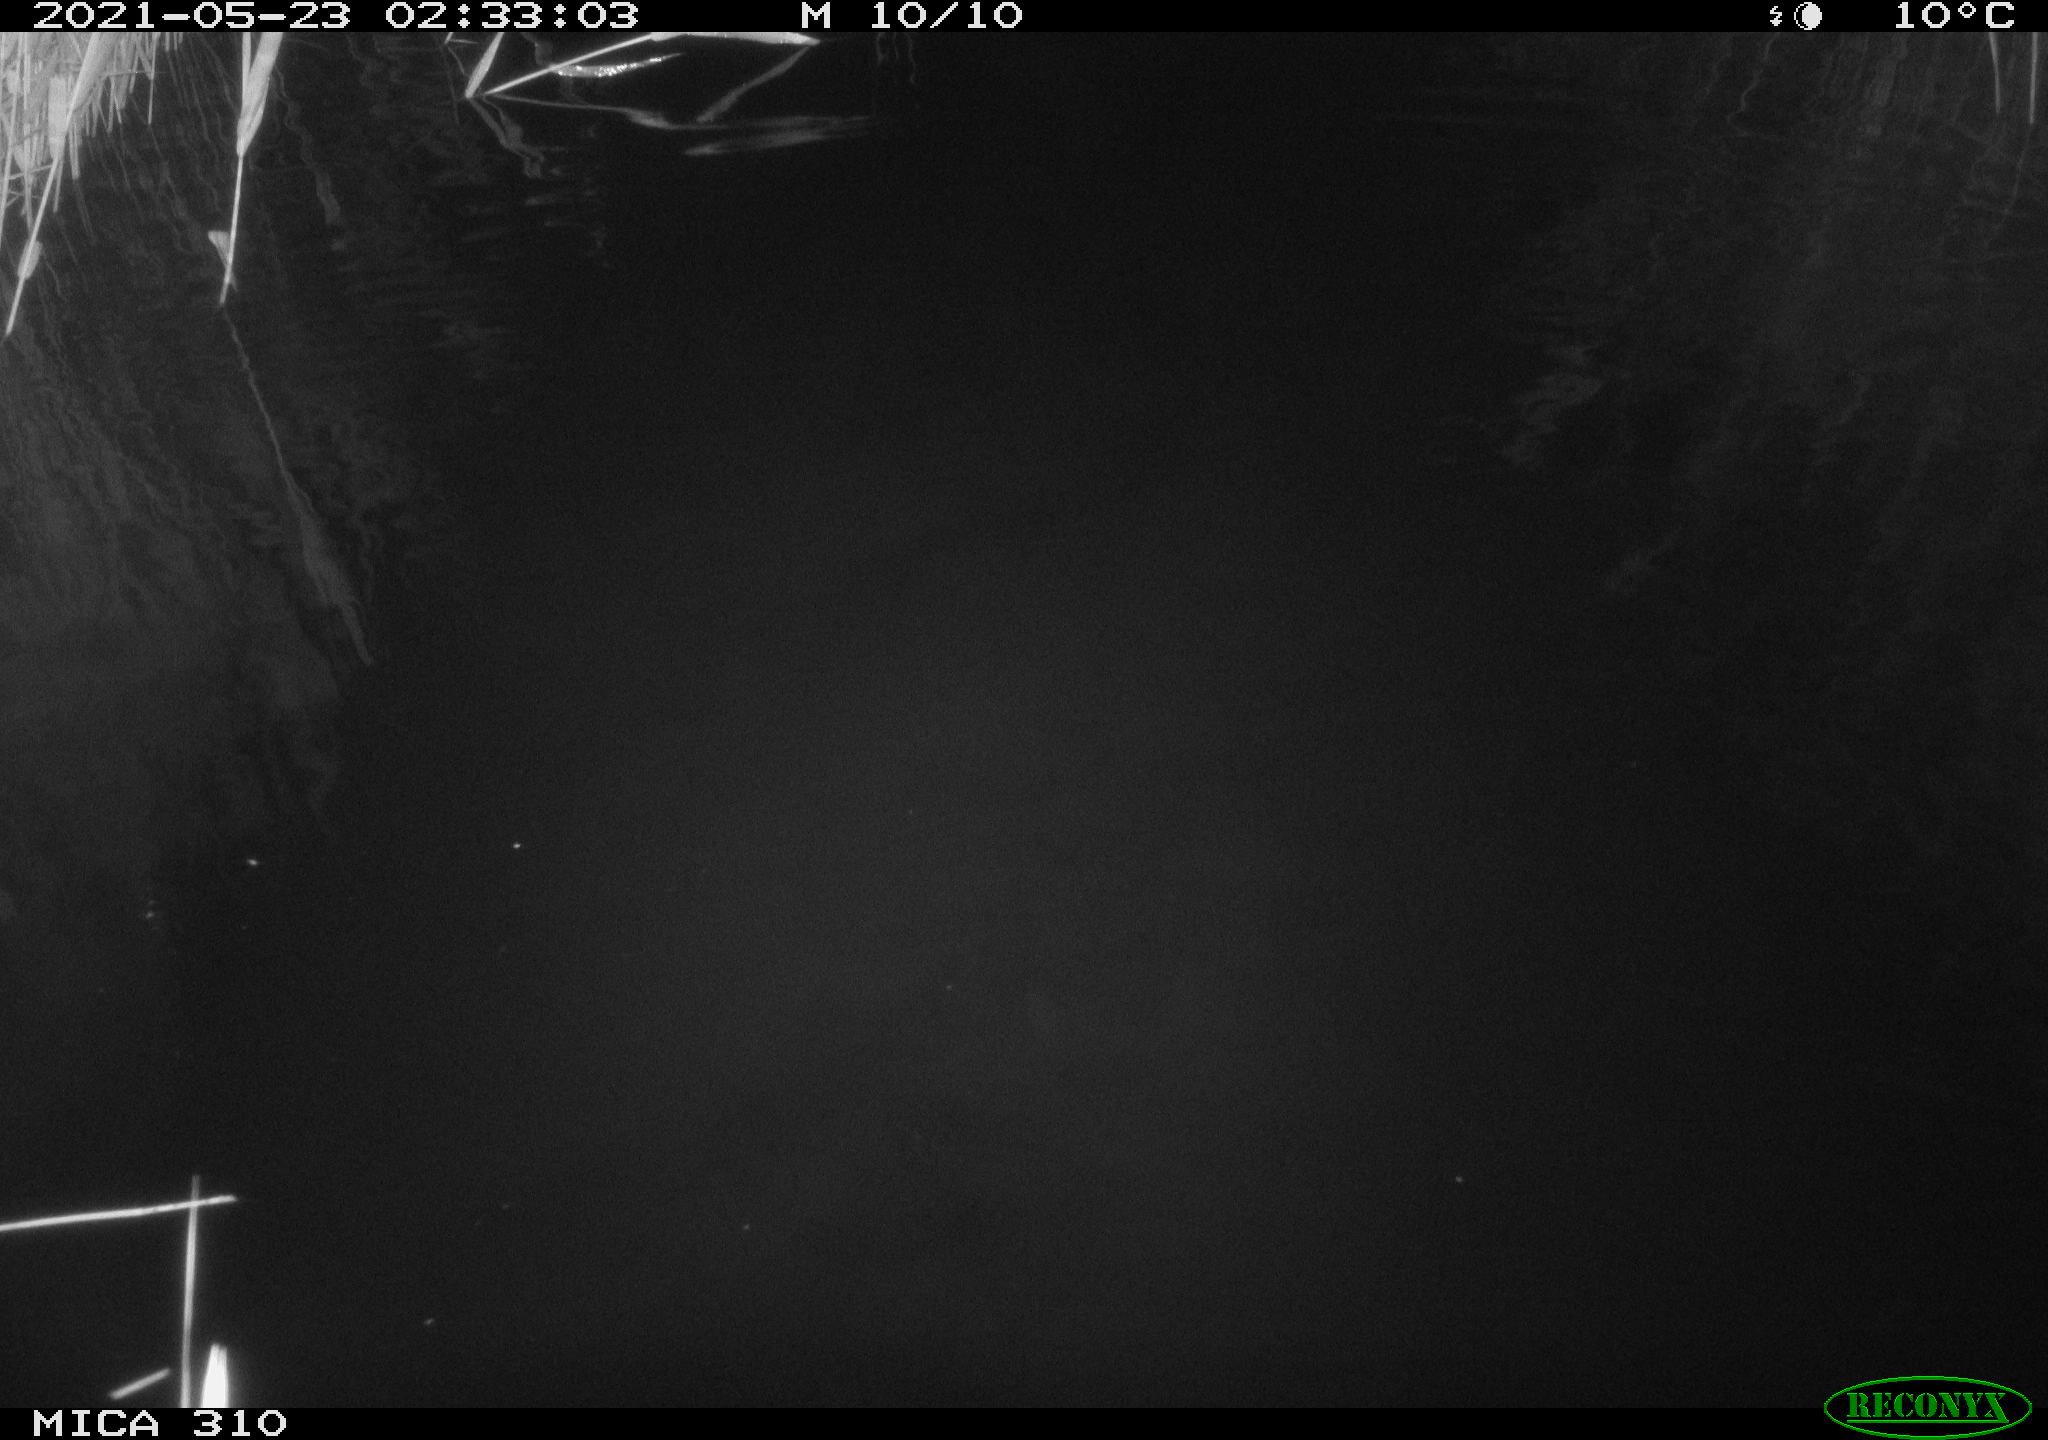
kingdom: Animalia
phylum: Chordata
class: Mammalia
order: Rodentia
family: Muridae
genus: Rattus
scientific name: Rattus norvegicus
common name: Brown rat
